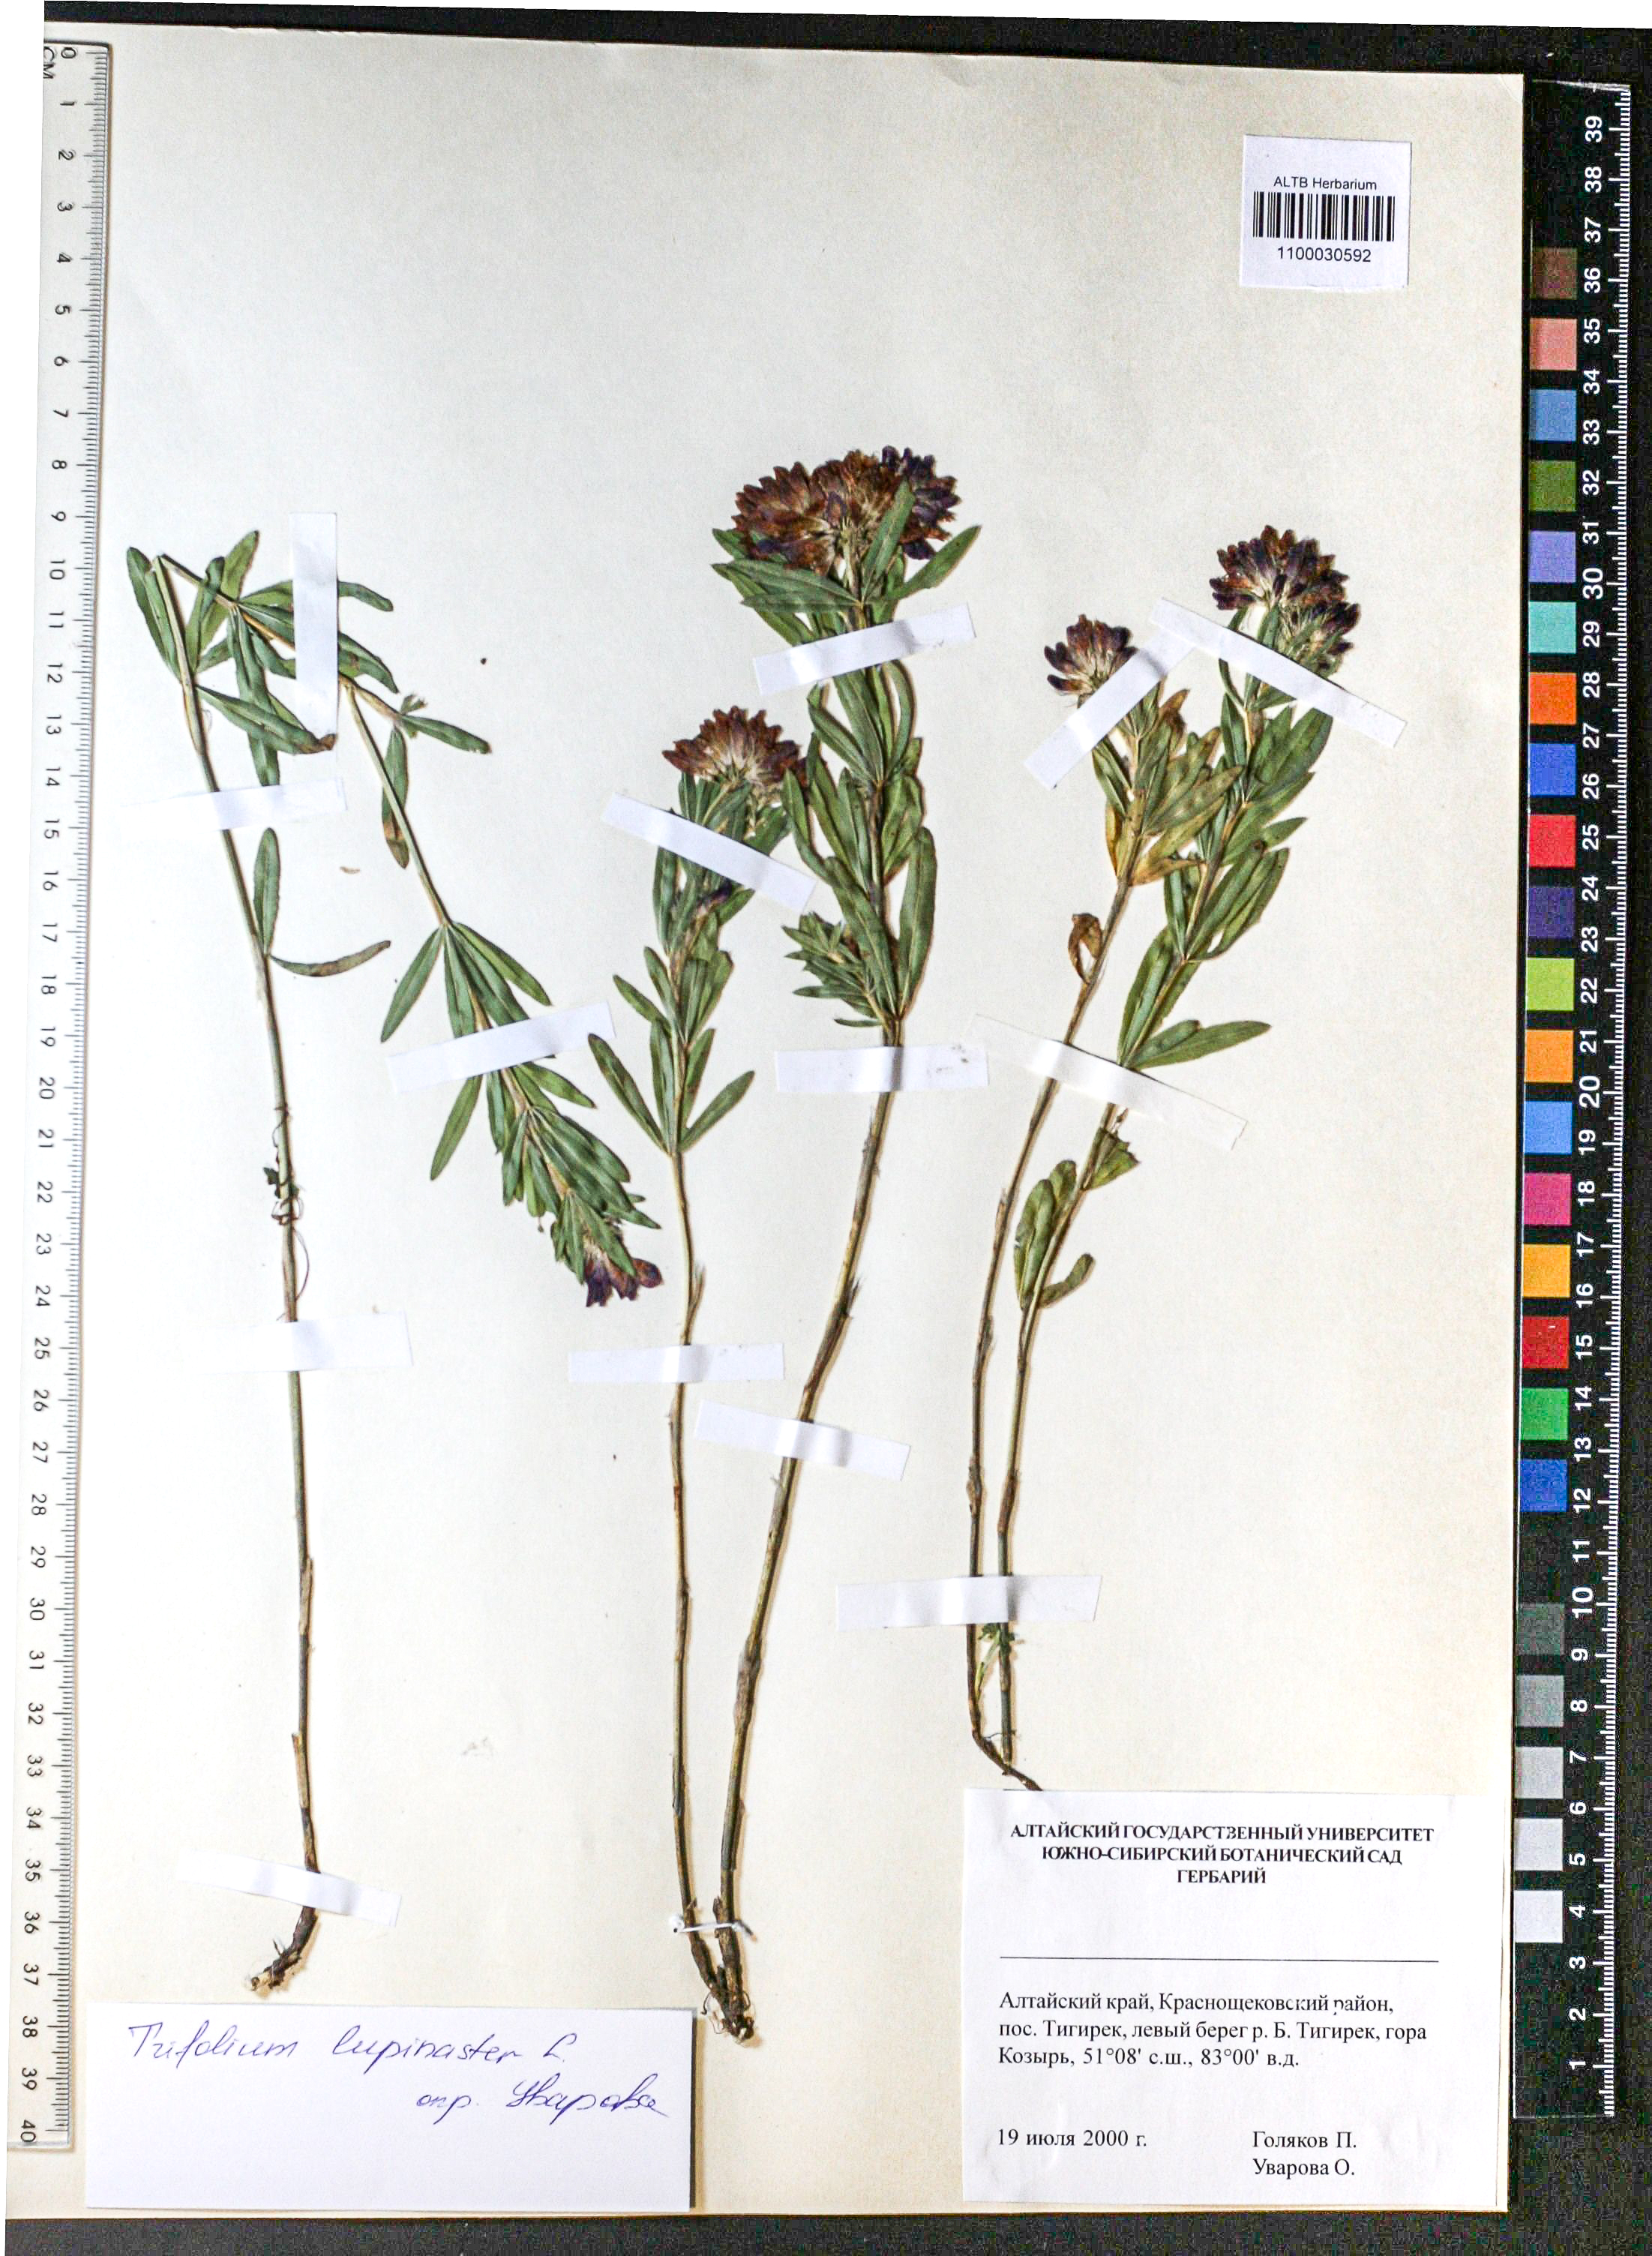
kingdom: Plantae
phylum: Tracheophyta
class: Magnoliopsida
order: Fabales
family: Fabaceae
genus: Trifolium
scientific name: Trifolium lupinaster
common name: Lupine clover
